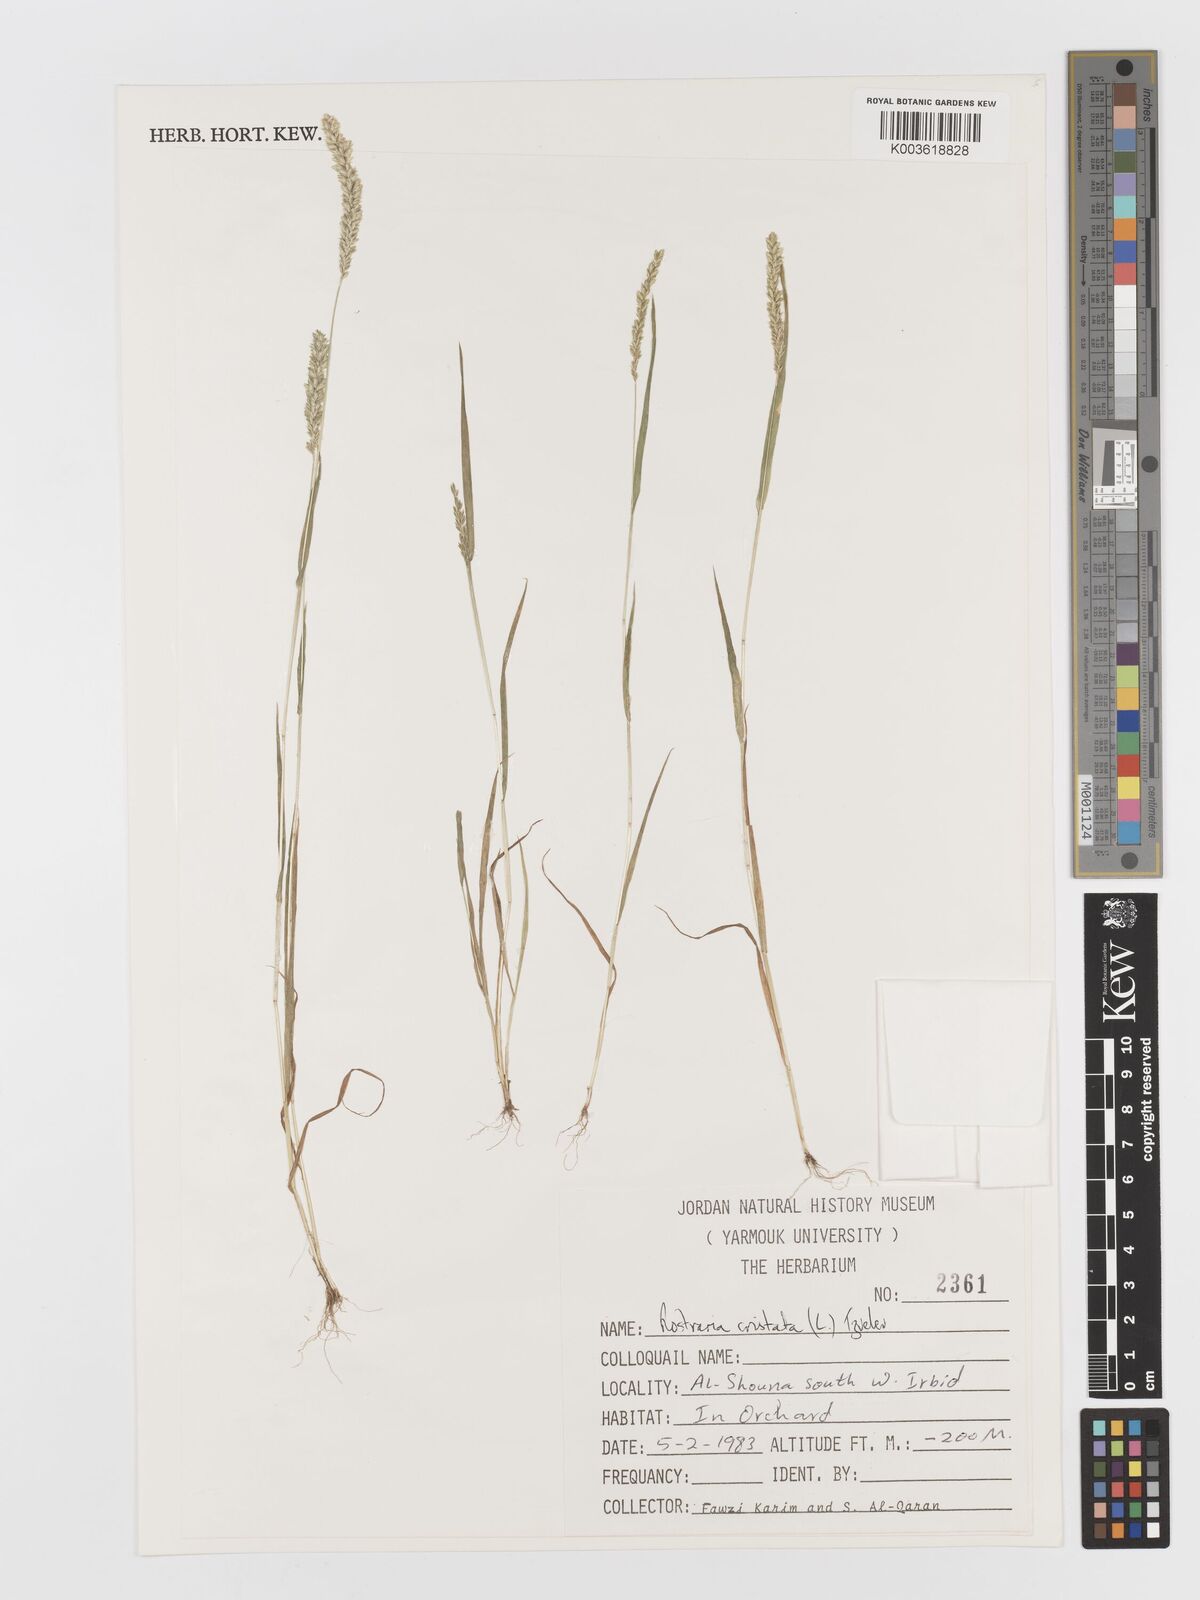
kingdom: Plantae
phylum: Tracheophyta
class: Liliopsida
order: Poales
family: Poaceae
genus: Rostraria
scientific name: Rostraria cristata
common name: Mediterranean hair-grass
